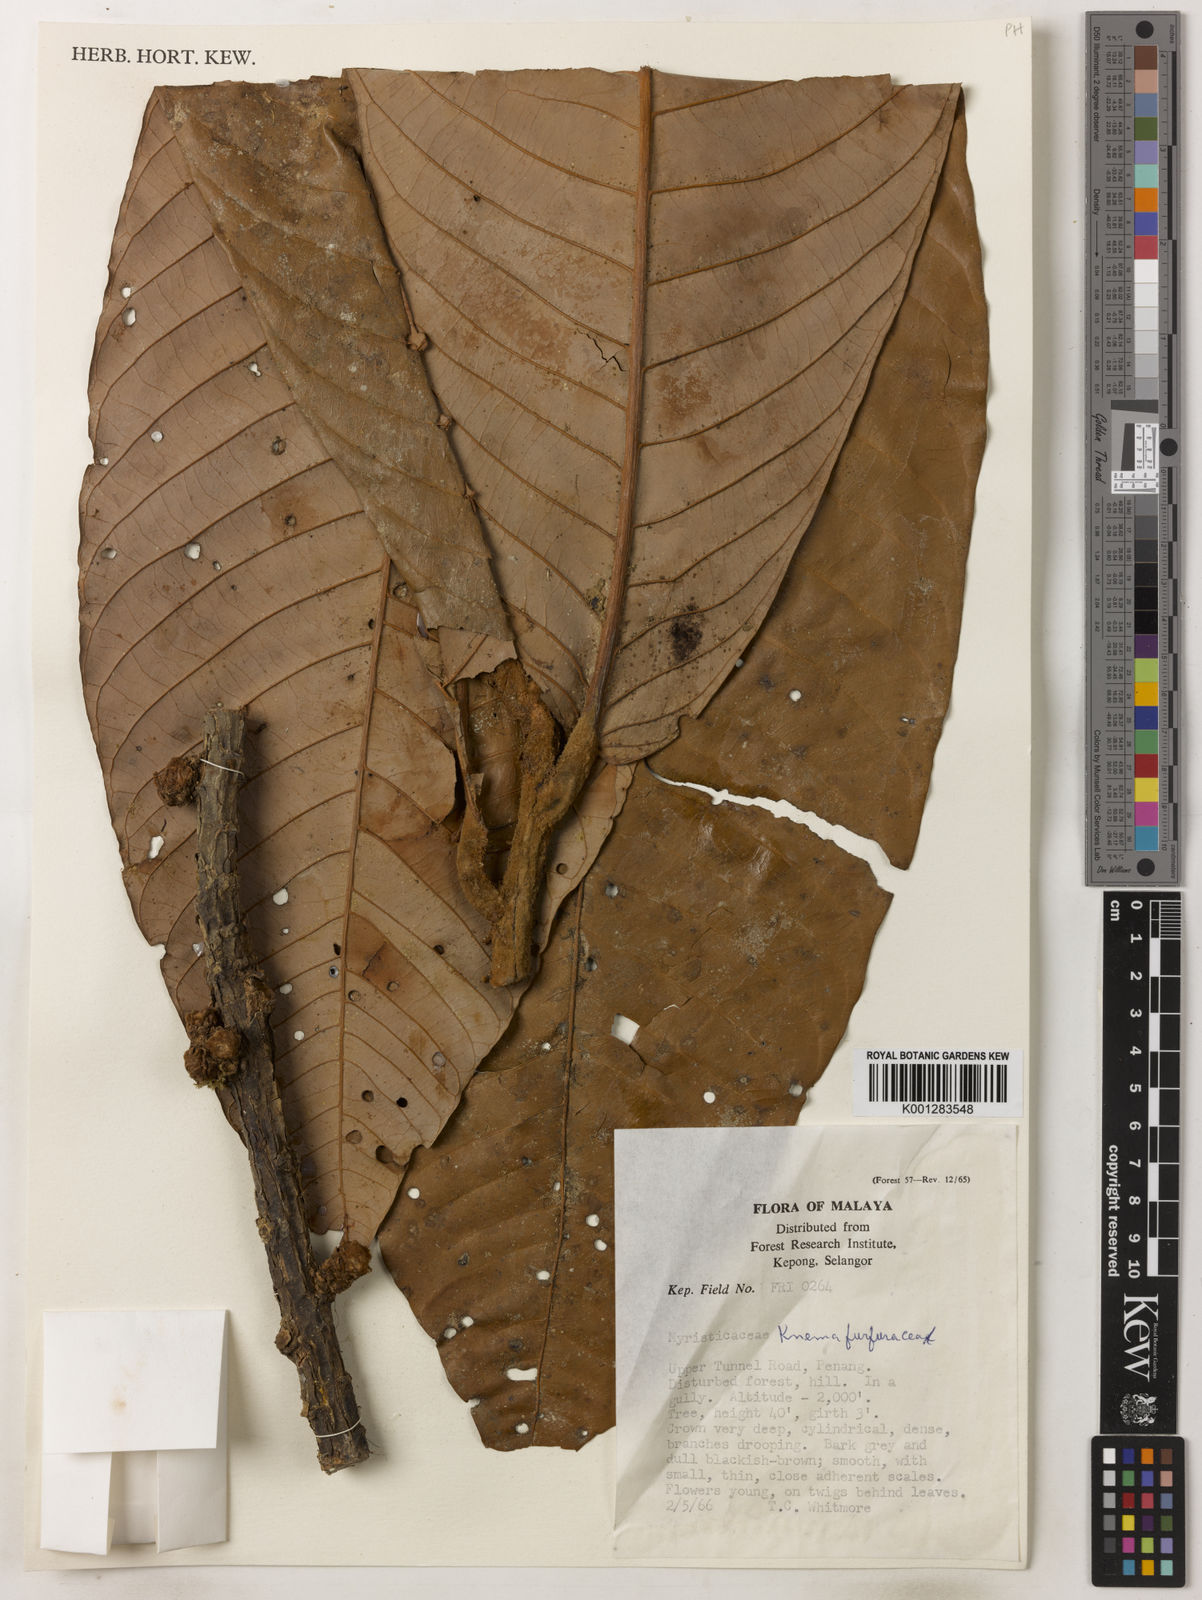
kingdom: Plantae
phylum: Tracheophyta
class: Magnoliopsida
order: Magnoliales
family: Myristicaceae
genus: Knema
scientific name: Knema furfuracea
